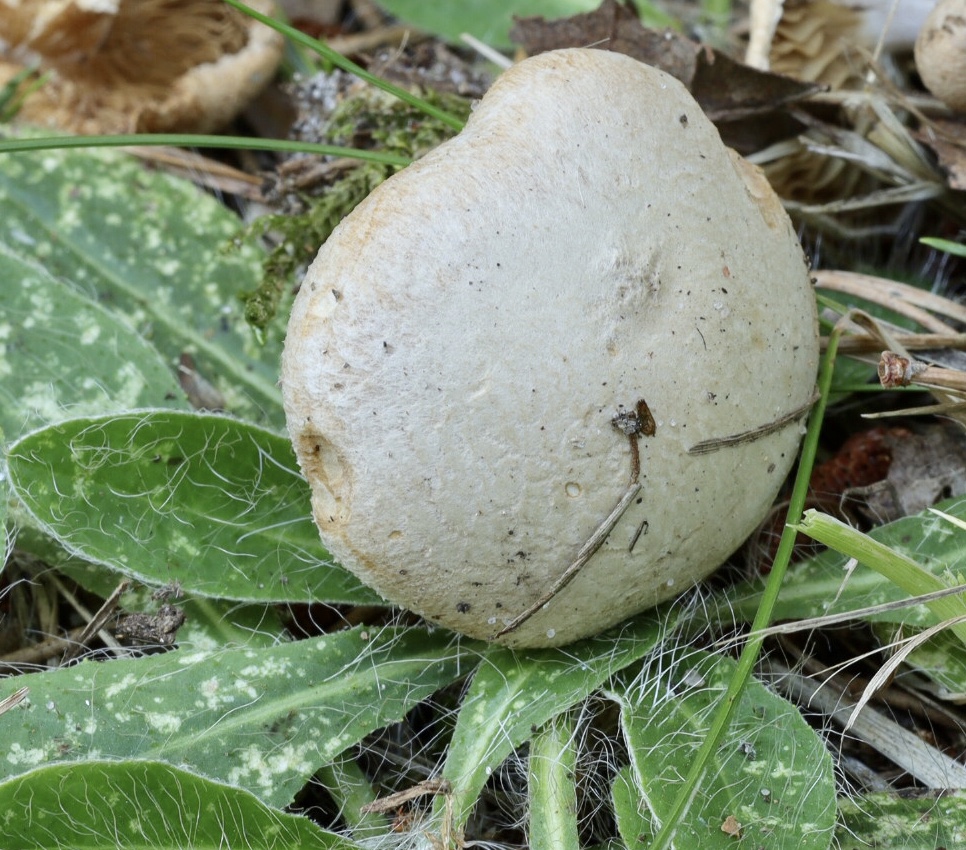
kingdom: Fungi
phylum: Basidiomycota
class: Agaricomycetes
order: Agaricales
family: Inocybaceae
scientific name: Inocybaceae
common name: trævlhatfamilien
